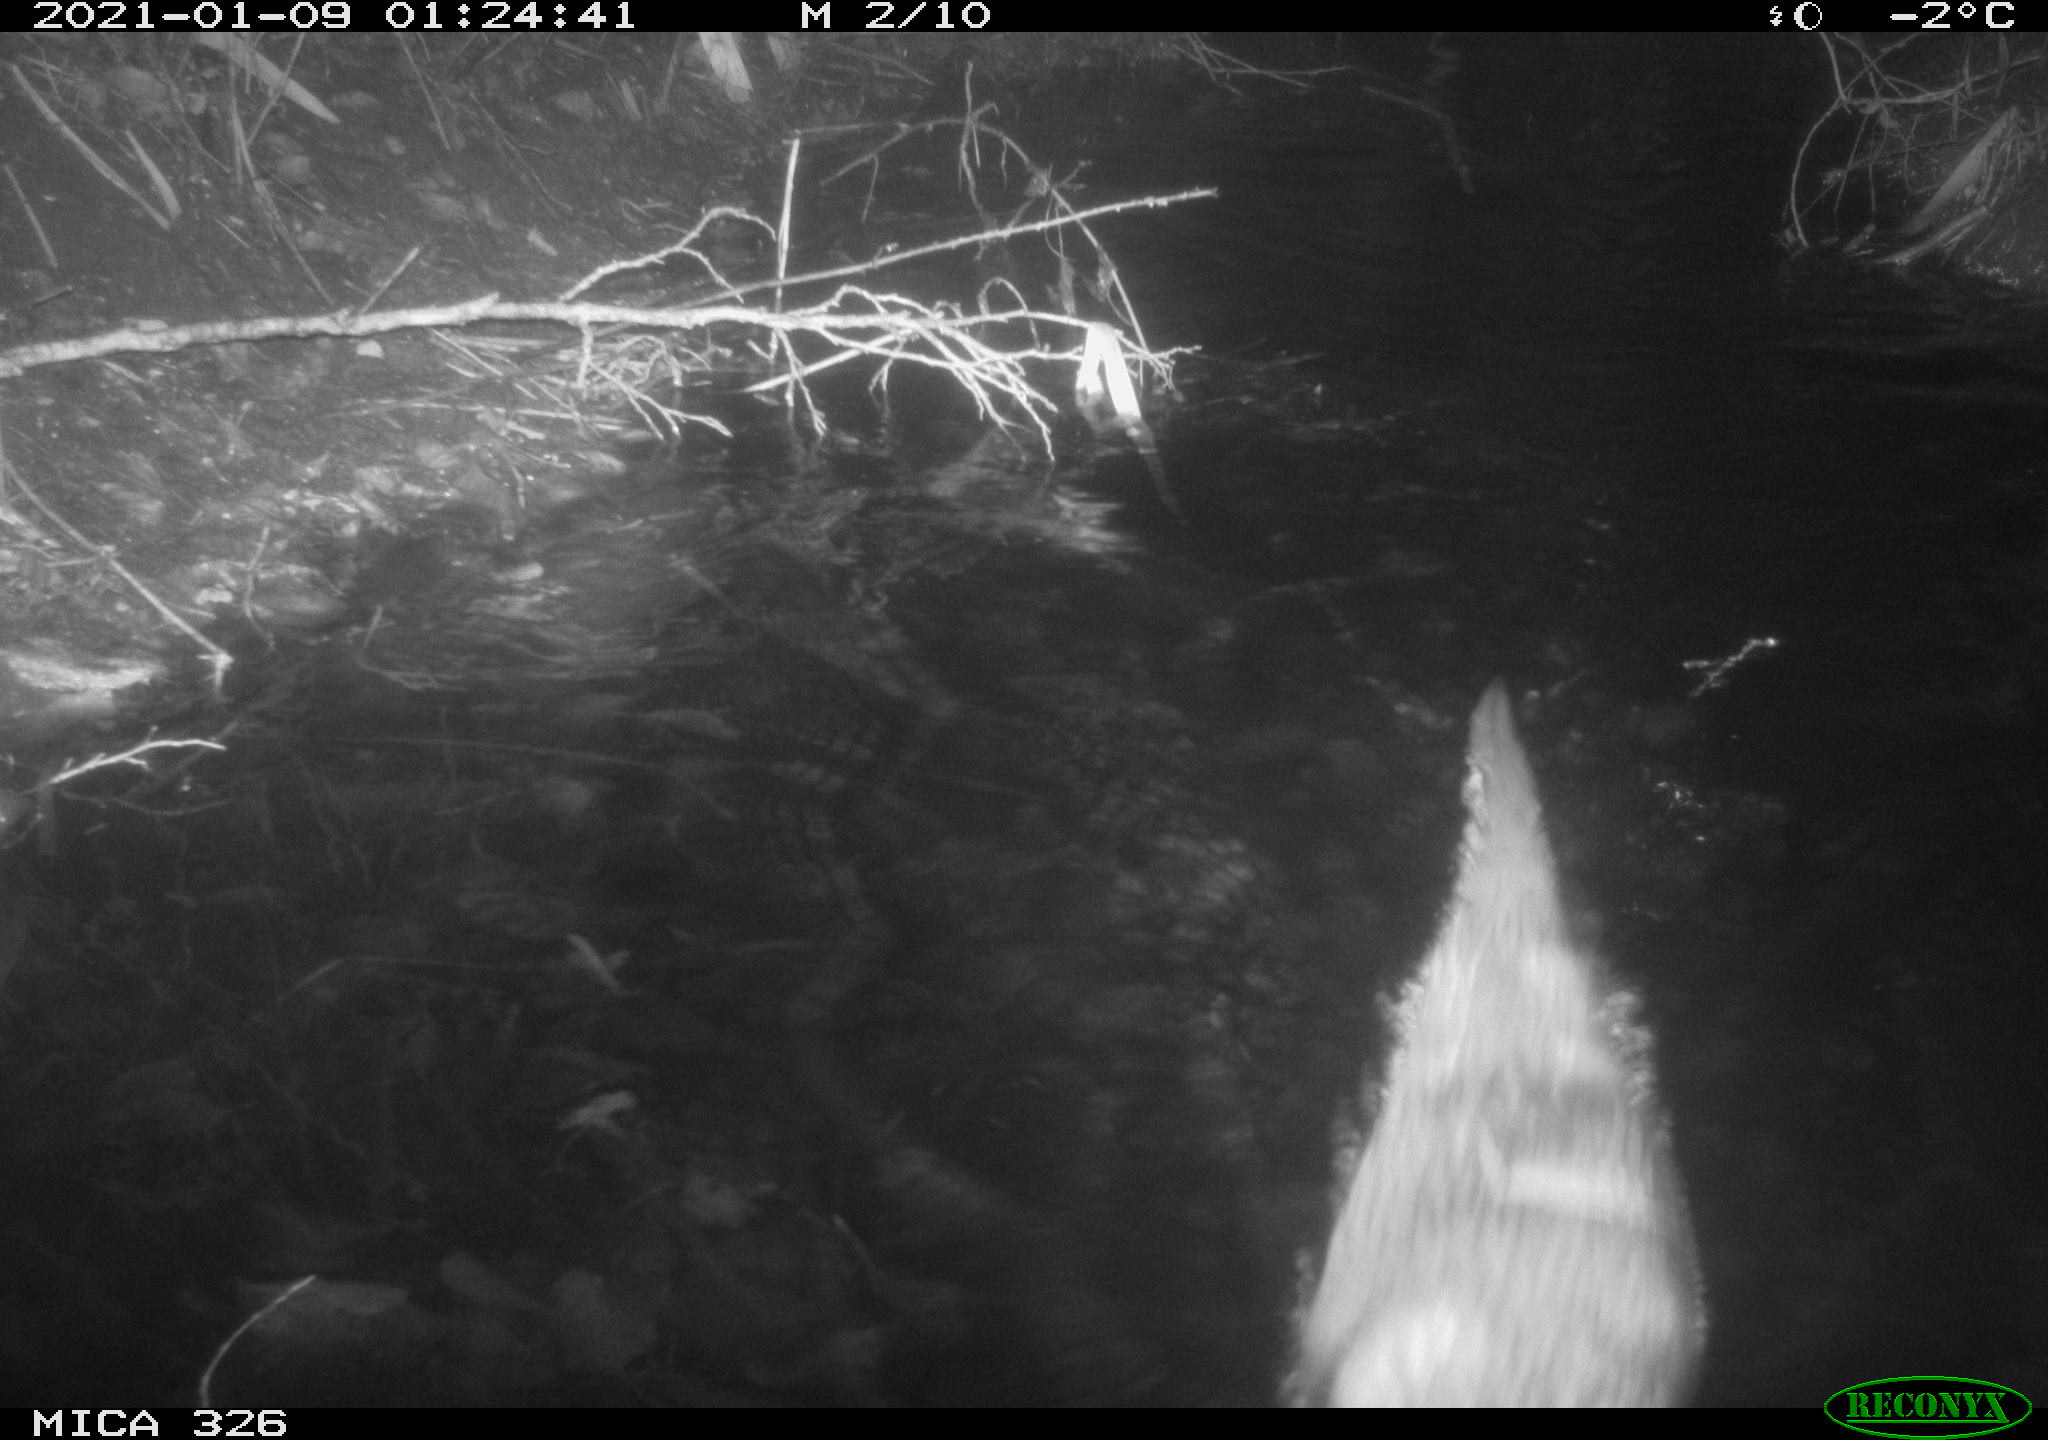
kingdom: Animalia
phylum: Chordata
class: Mammalia
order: Carnivora
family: Mustelidae
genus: Lutra
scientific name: Lutra lutra
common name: European otter
